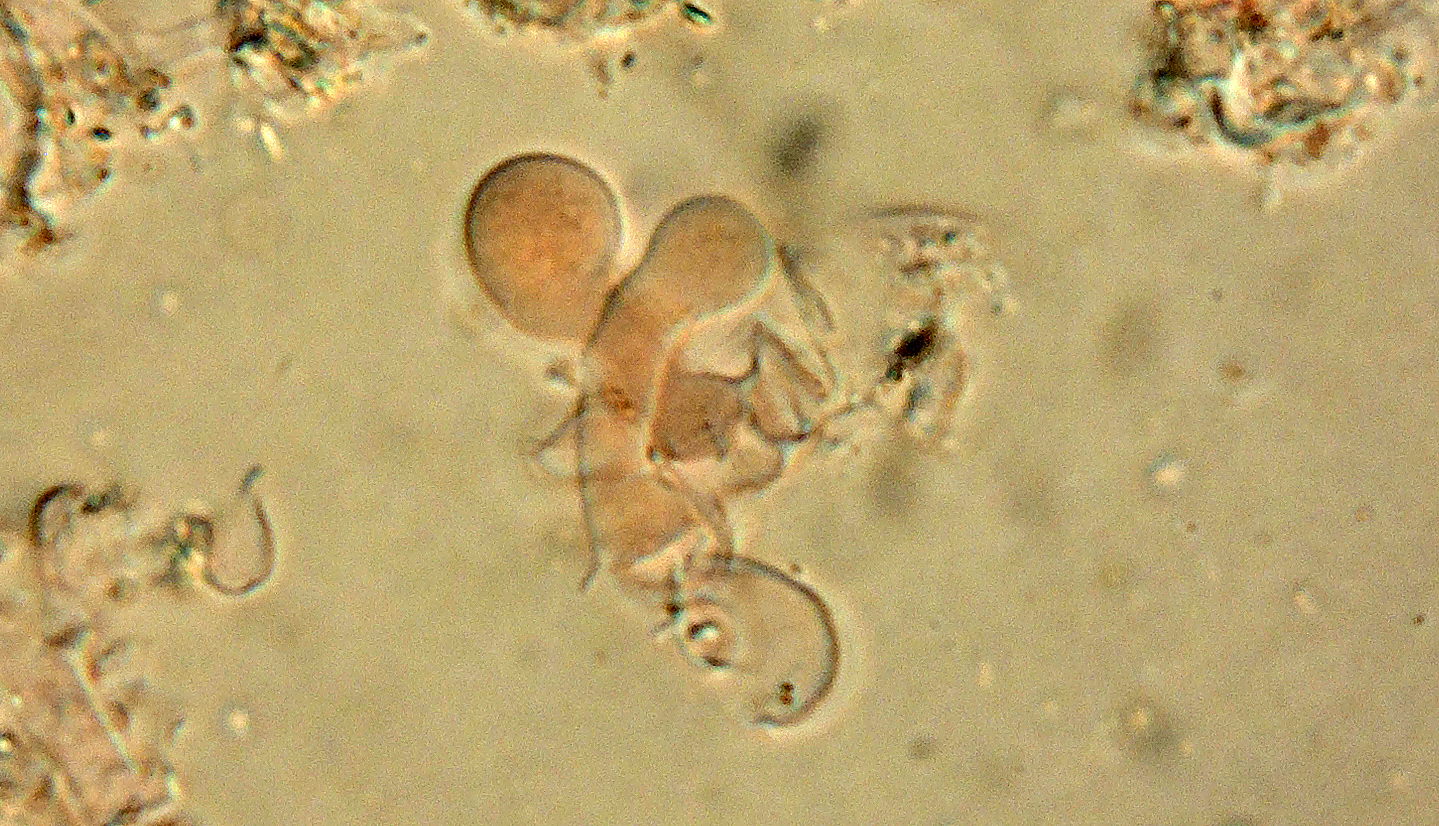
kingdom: Fungi
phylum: Basidiomycota
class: Agaricomycetes
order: Corticiales
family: Corticiaceae
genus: Laetisaria
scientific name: Laetisaria lichenicola
